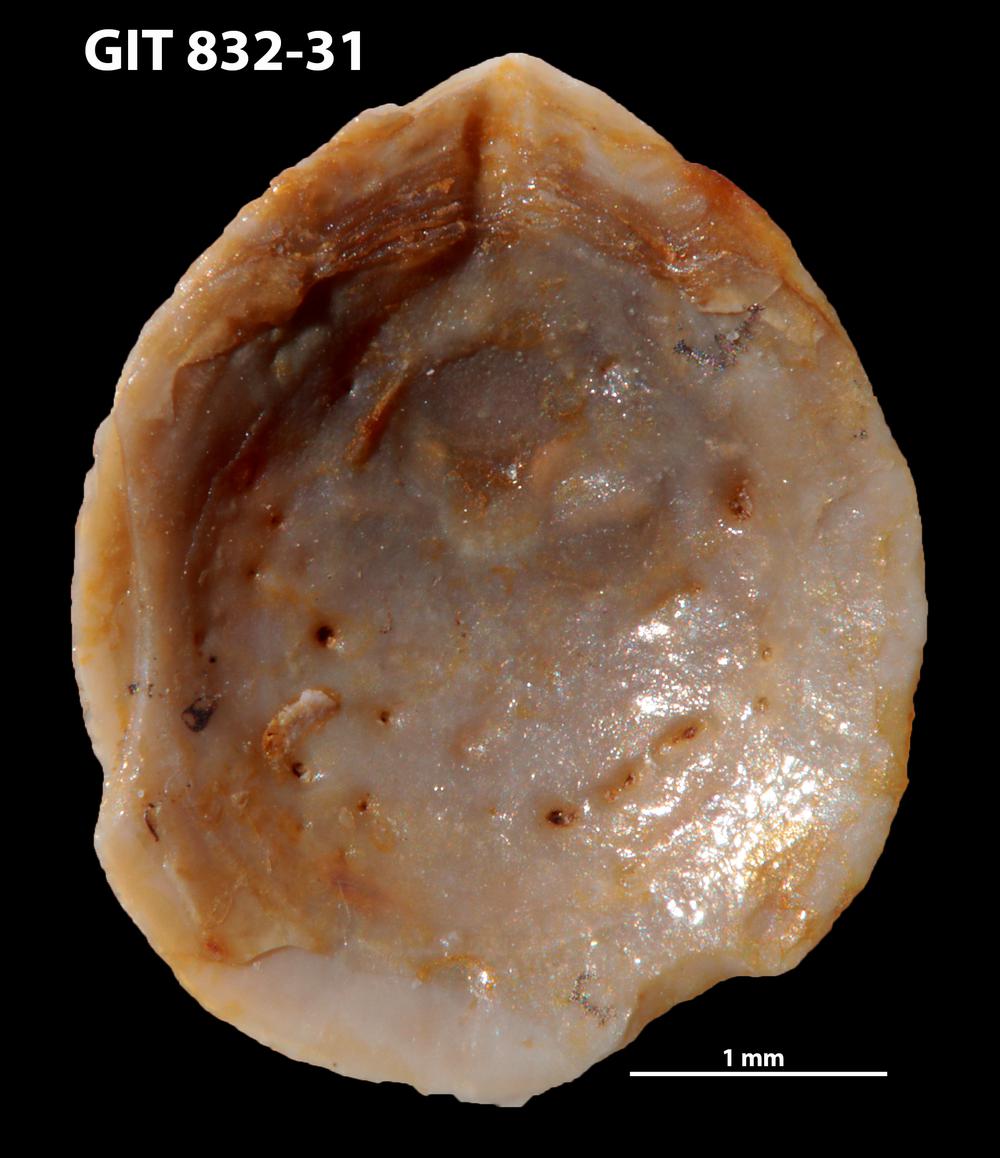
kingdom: Animalia
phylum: Brachiopoda
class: Lingulata
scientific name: Lingulata
